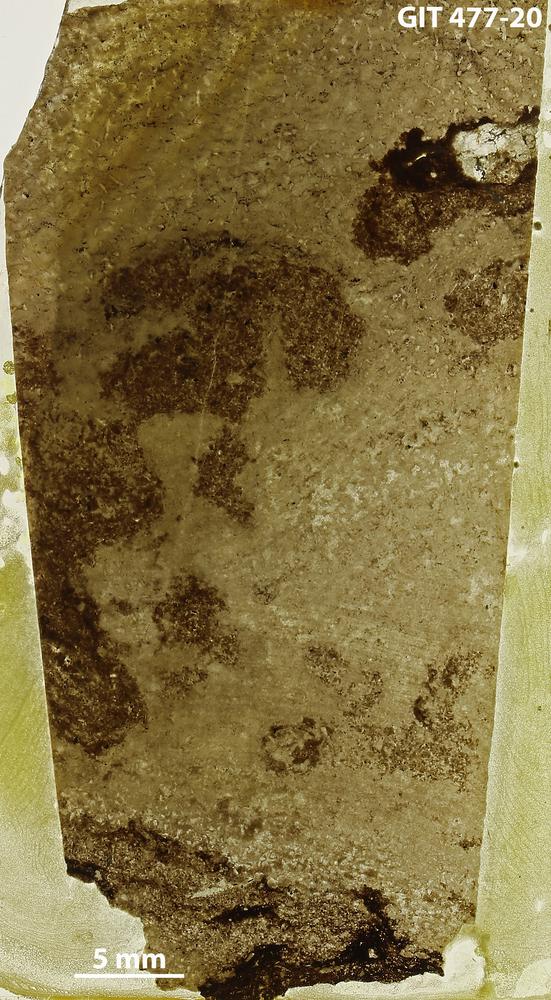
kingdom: Animalia
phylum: Porifera
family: Labechiidae
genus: Stromatocerium
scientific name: Stromatocerium rugosum
